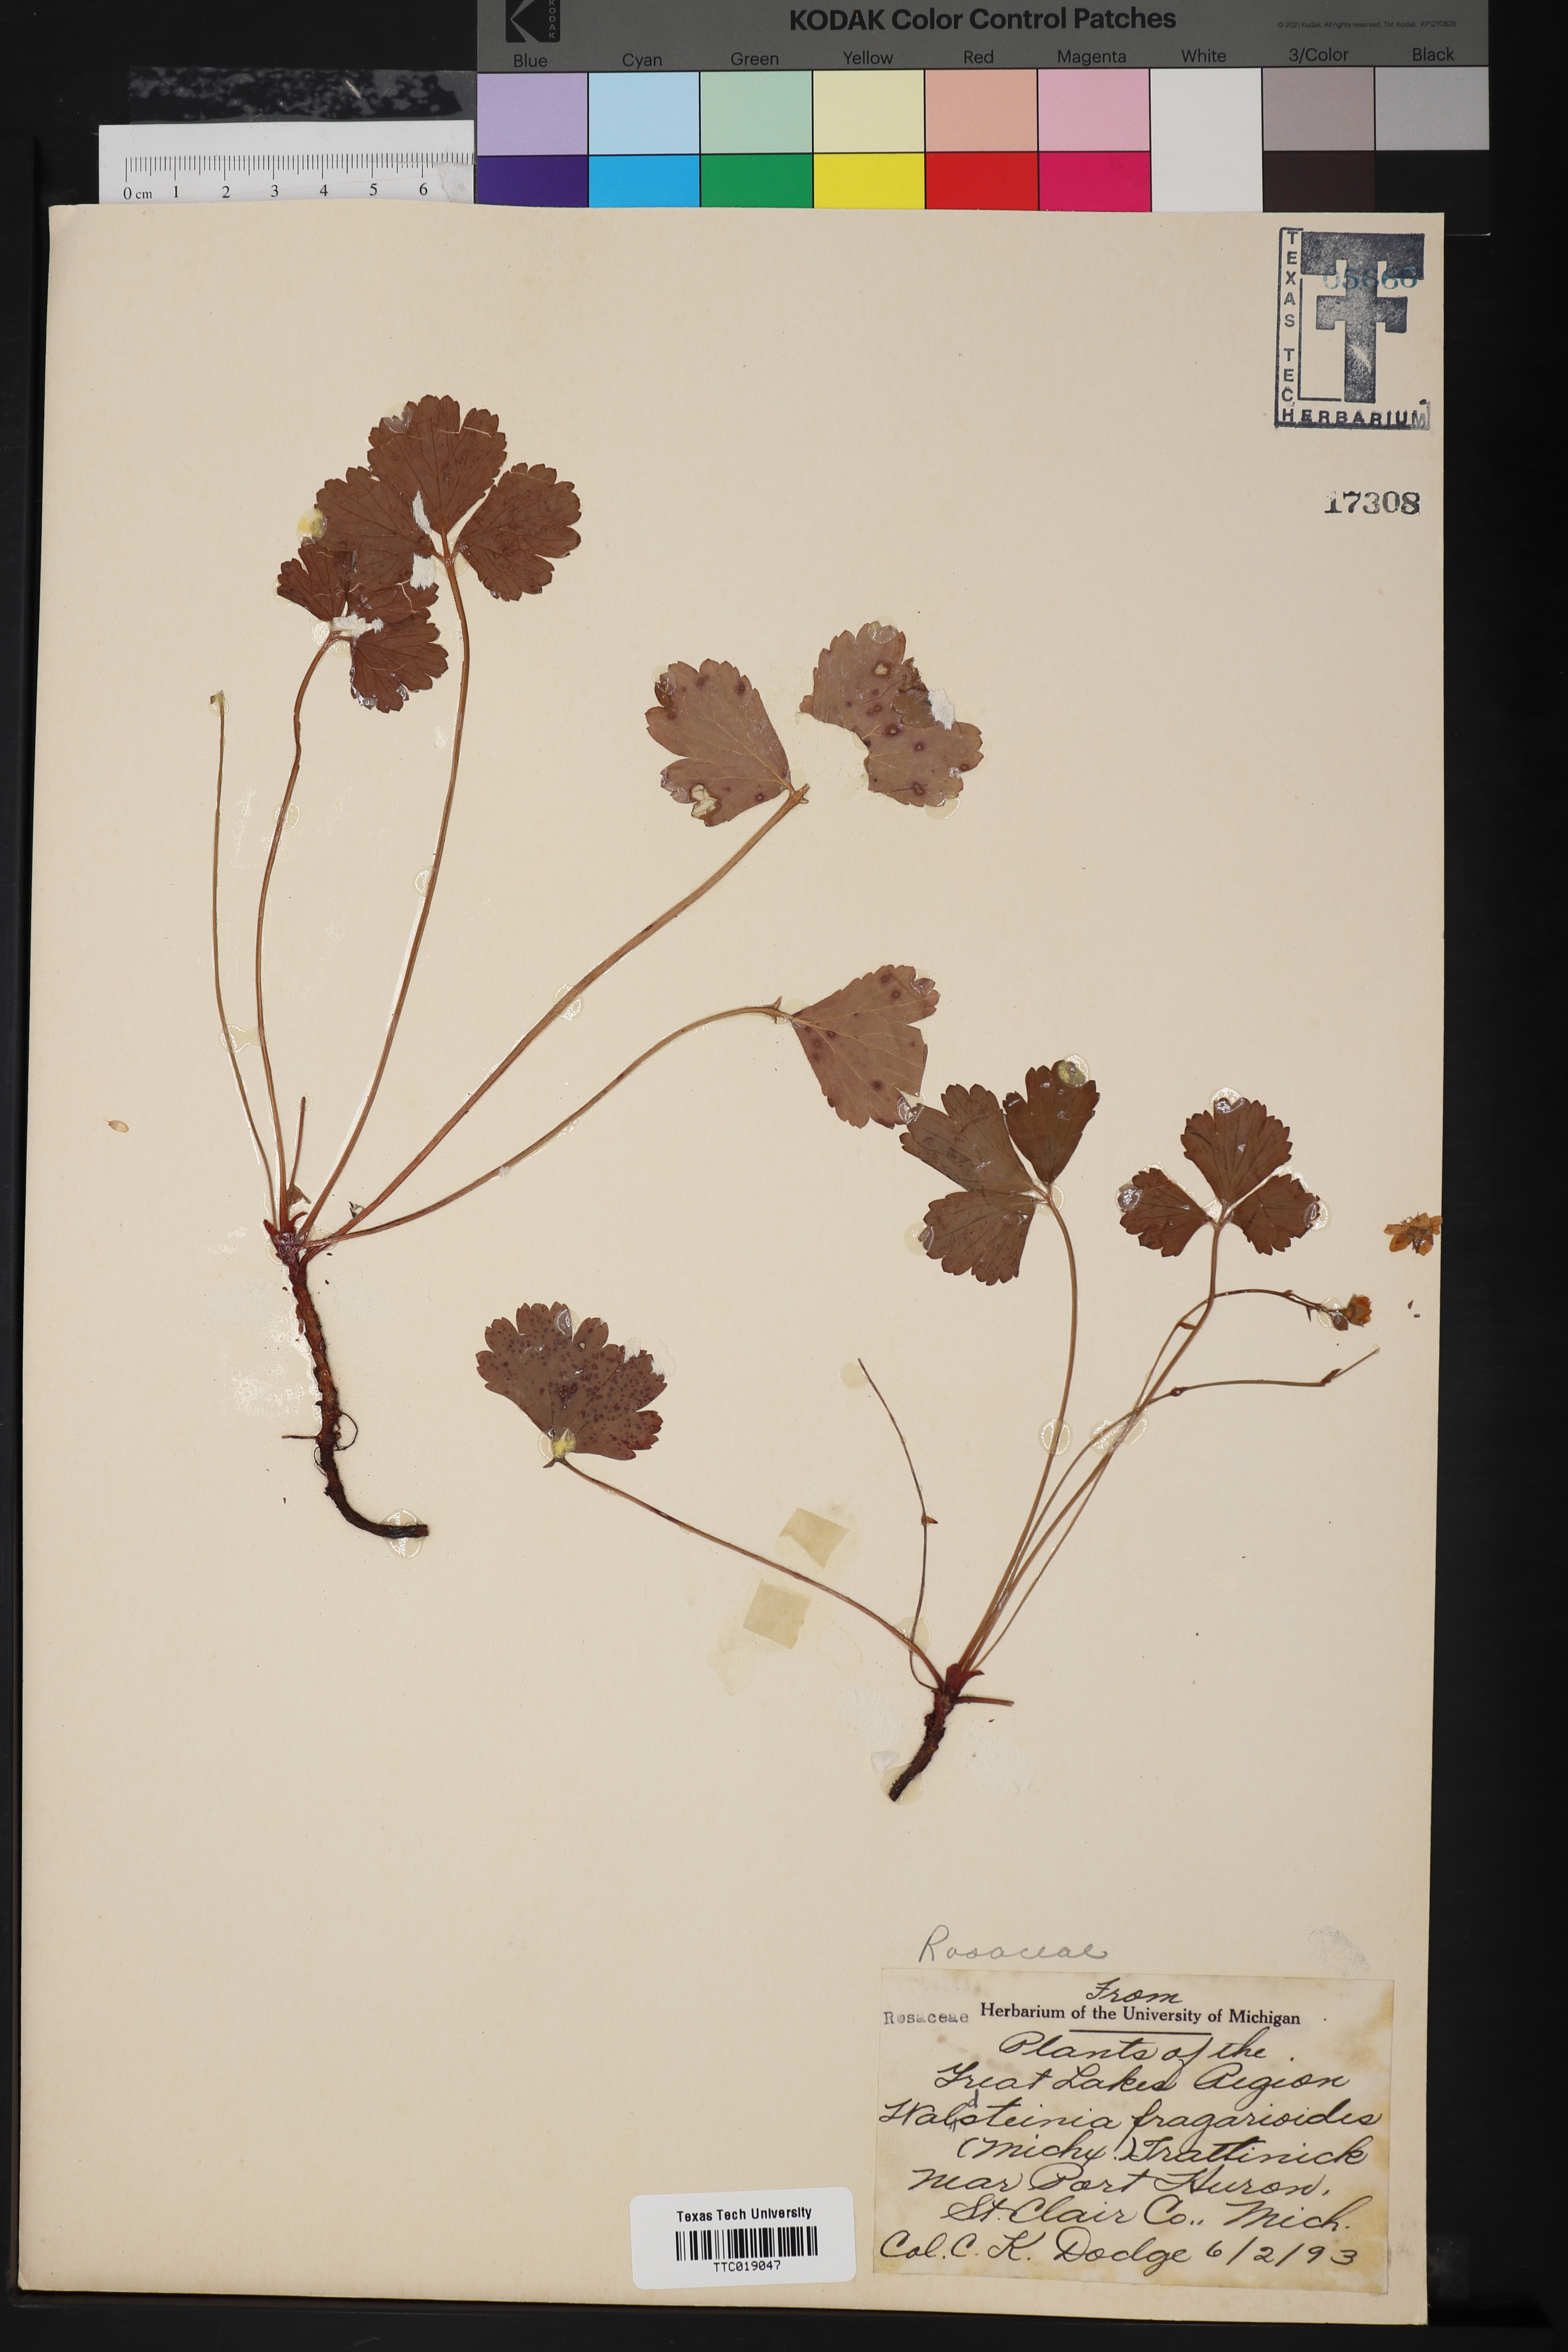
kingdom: Plantae
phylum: Tracheophyta
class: Magnoliopsida
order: Rosales
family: Rosaceae
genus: Geum
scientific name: Geum fragarioides
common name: Appalachian barren strawberry
